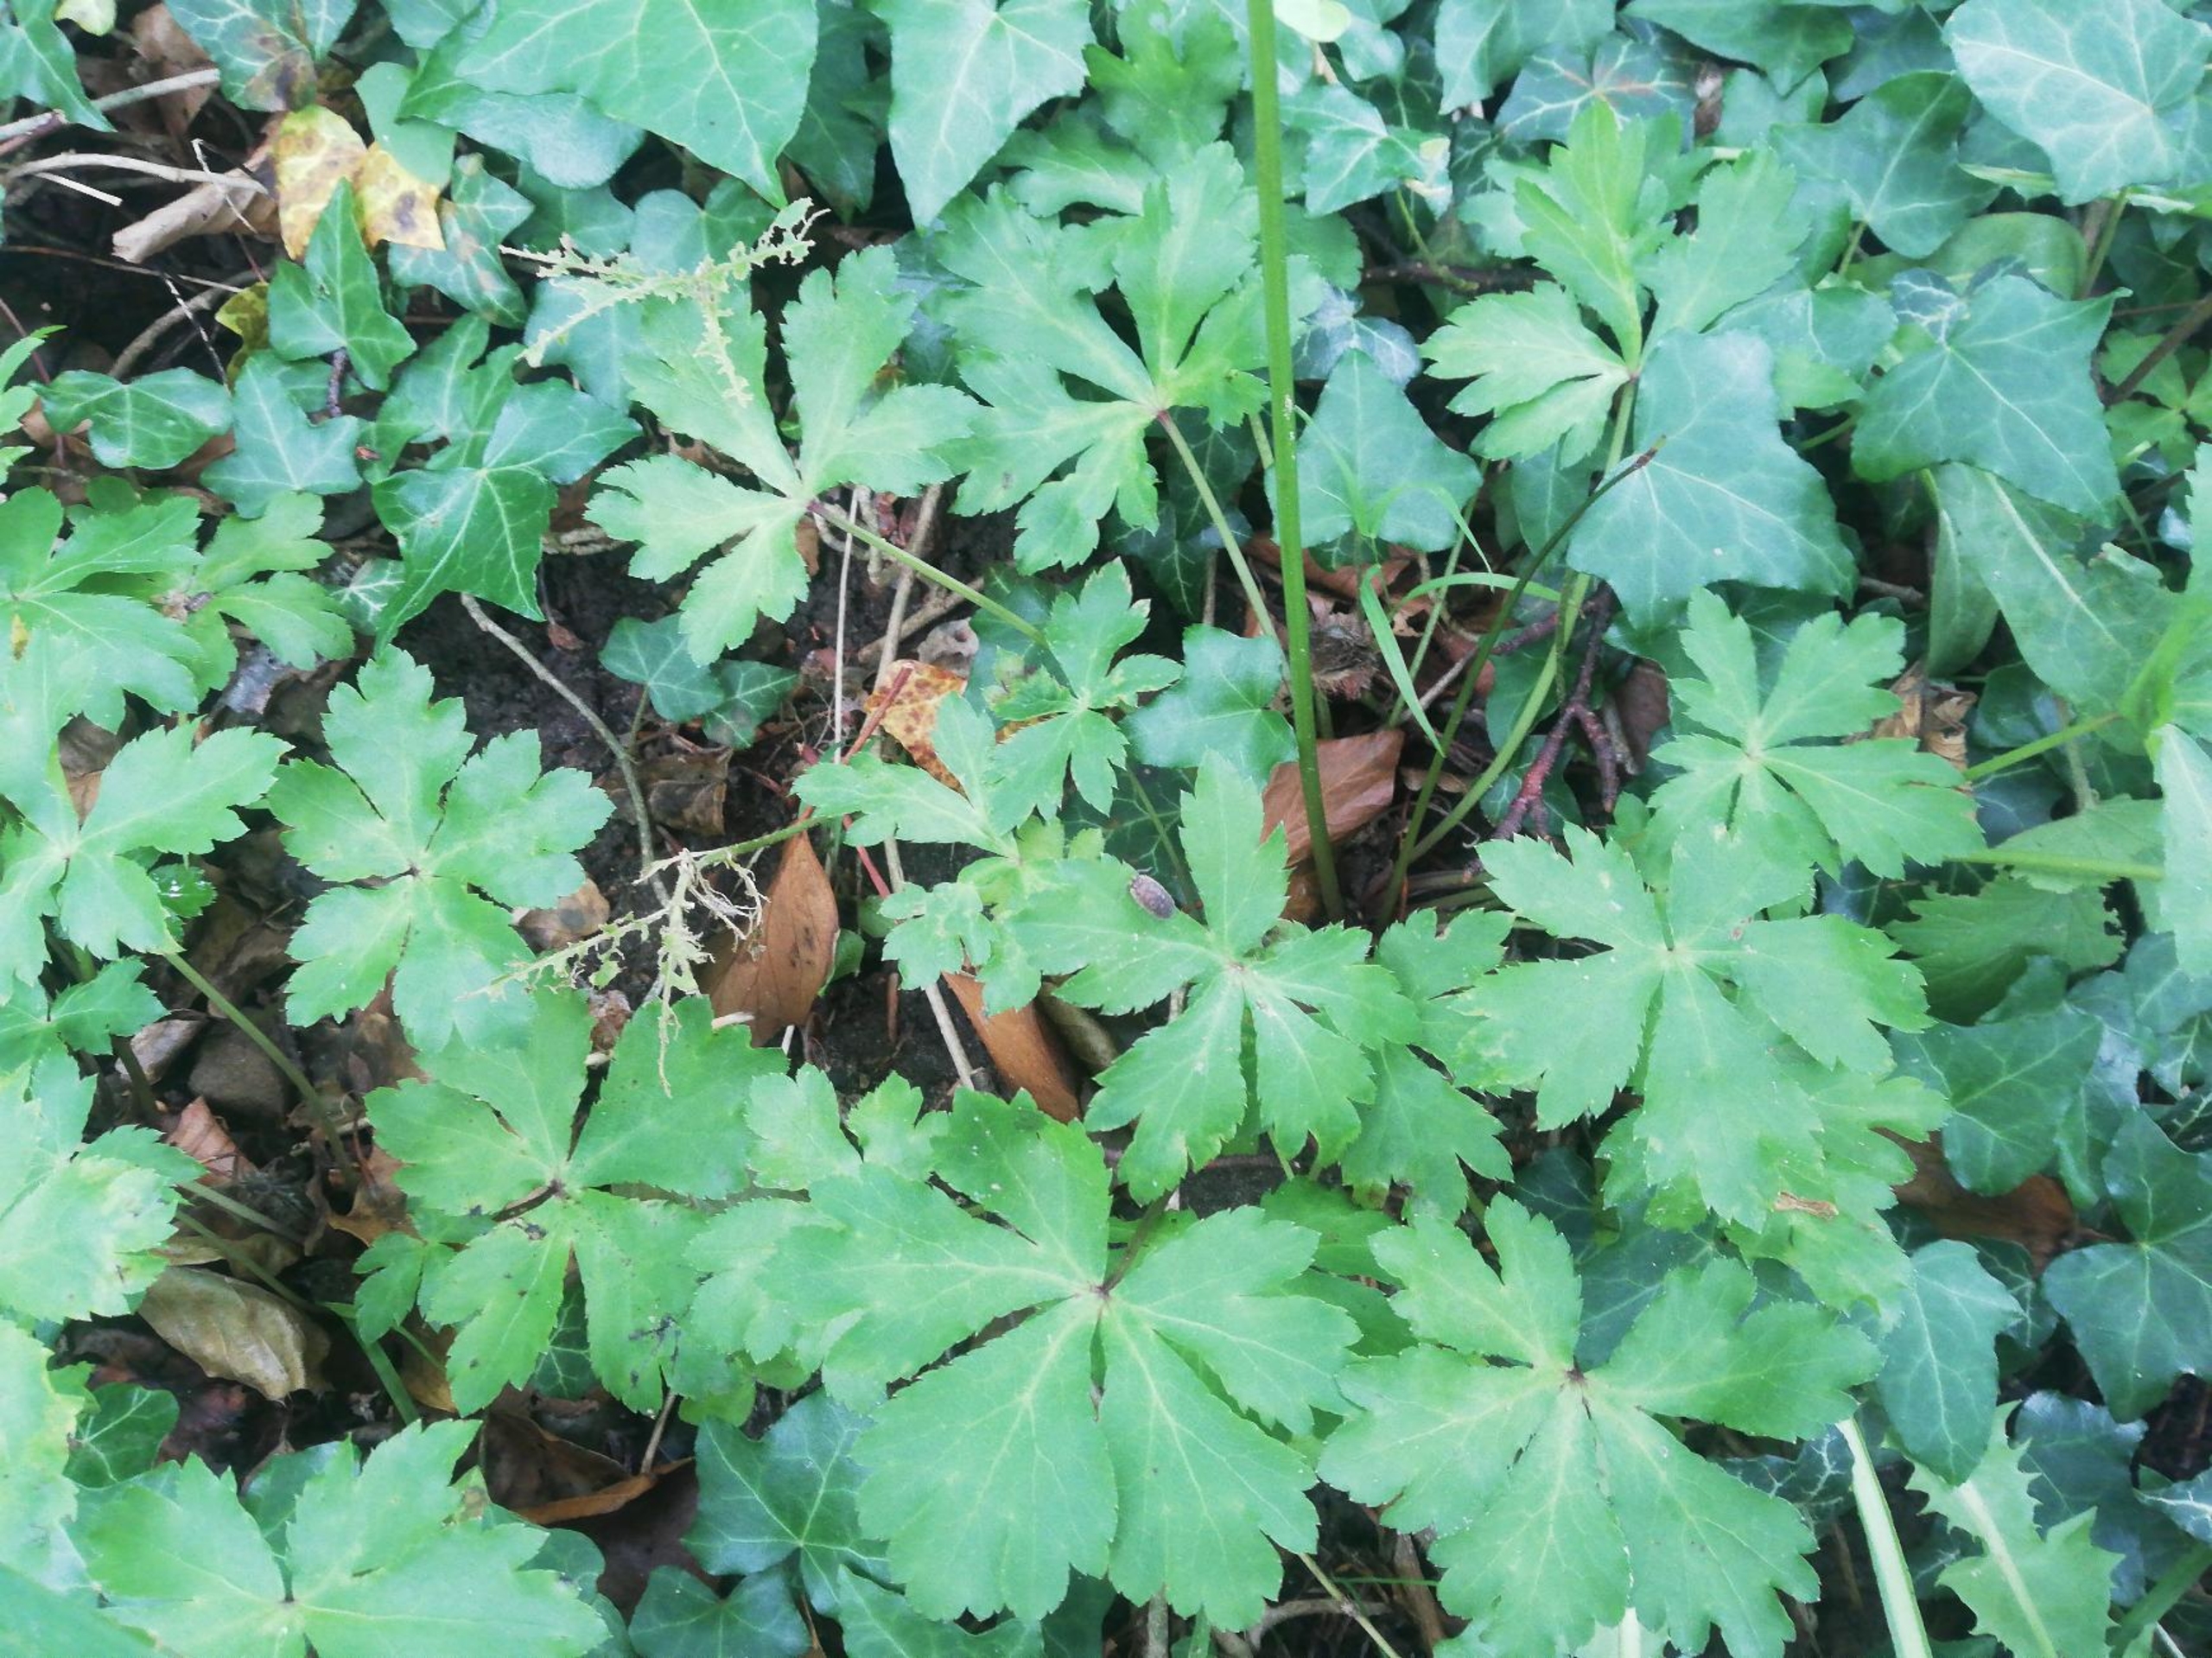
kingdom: Plantae
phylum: Tracheophyta
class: Magnoliopsida
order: Apiales
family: Apiaceae
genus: Sanicula
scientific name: Sanicula europaea
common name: Sanikel
